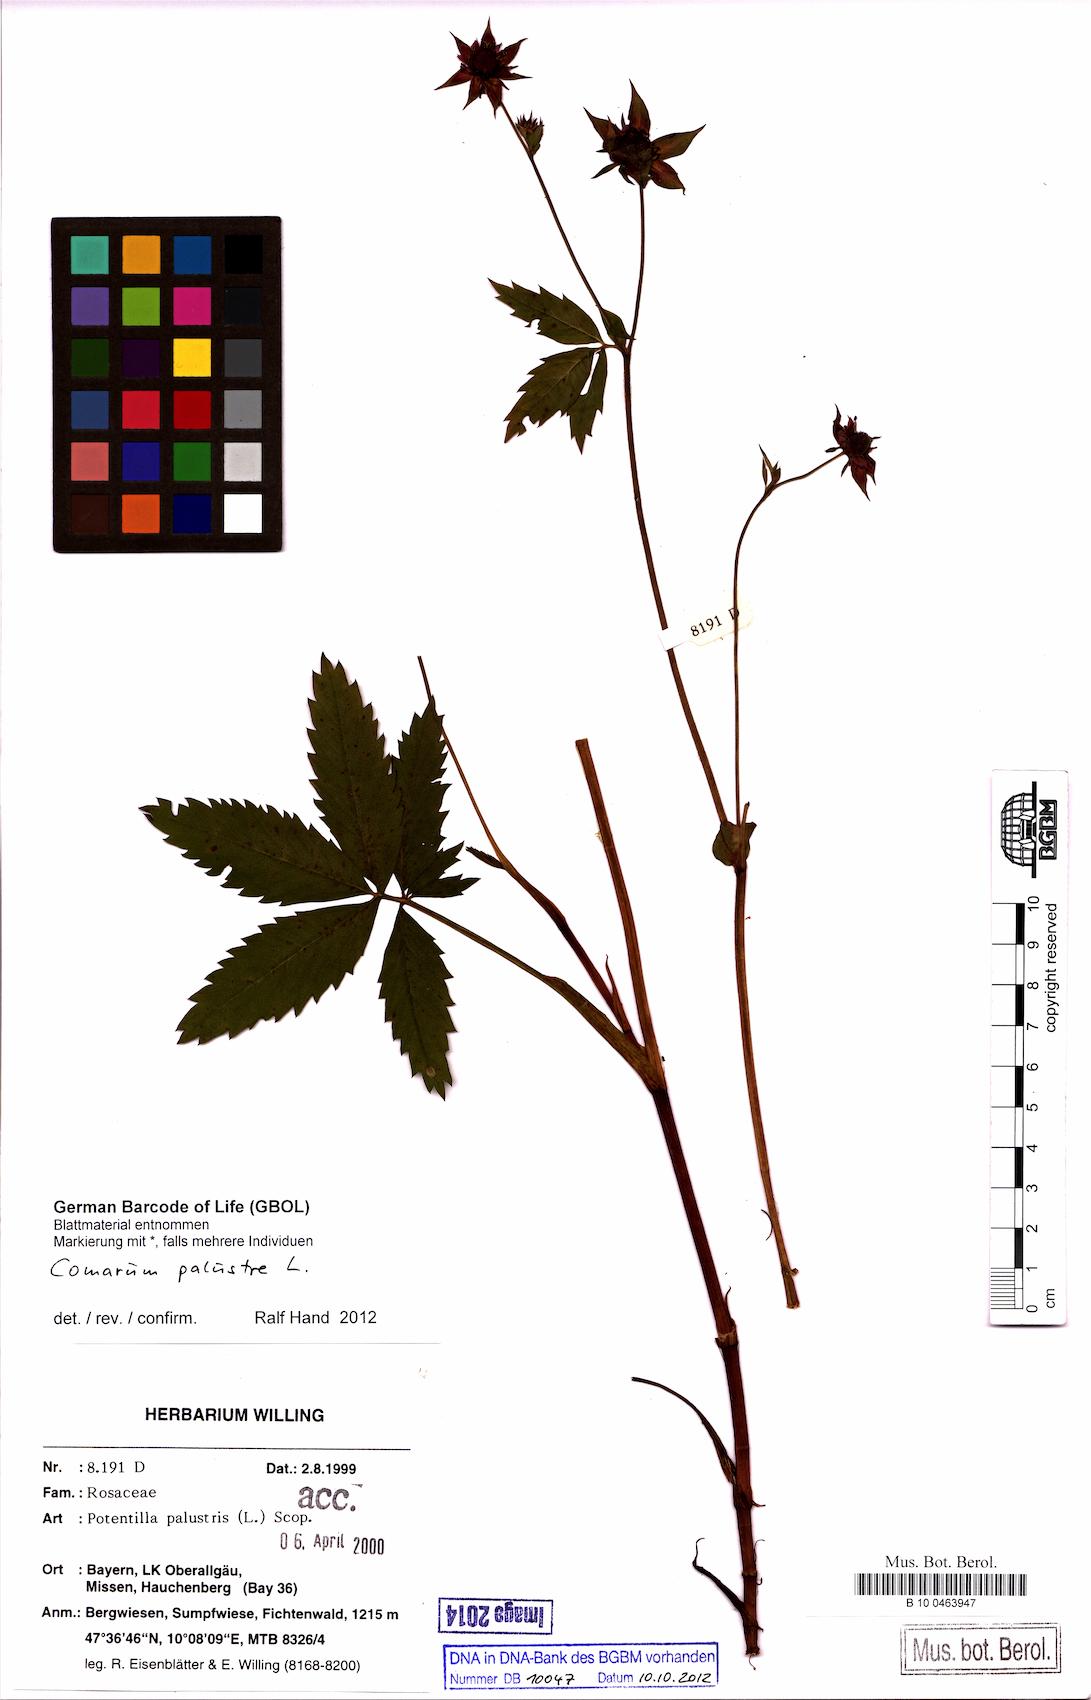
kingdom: Plantae
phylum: Tracheophyta
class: Magnoliopsida
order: Rosales
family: Rosaceae
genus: Comarum
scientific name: Comarum palustre
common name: Marsh cinquefoil
